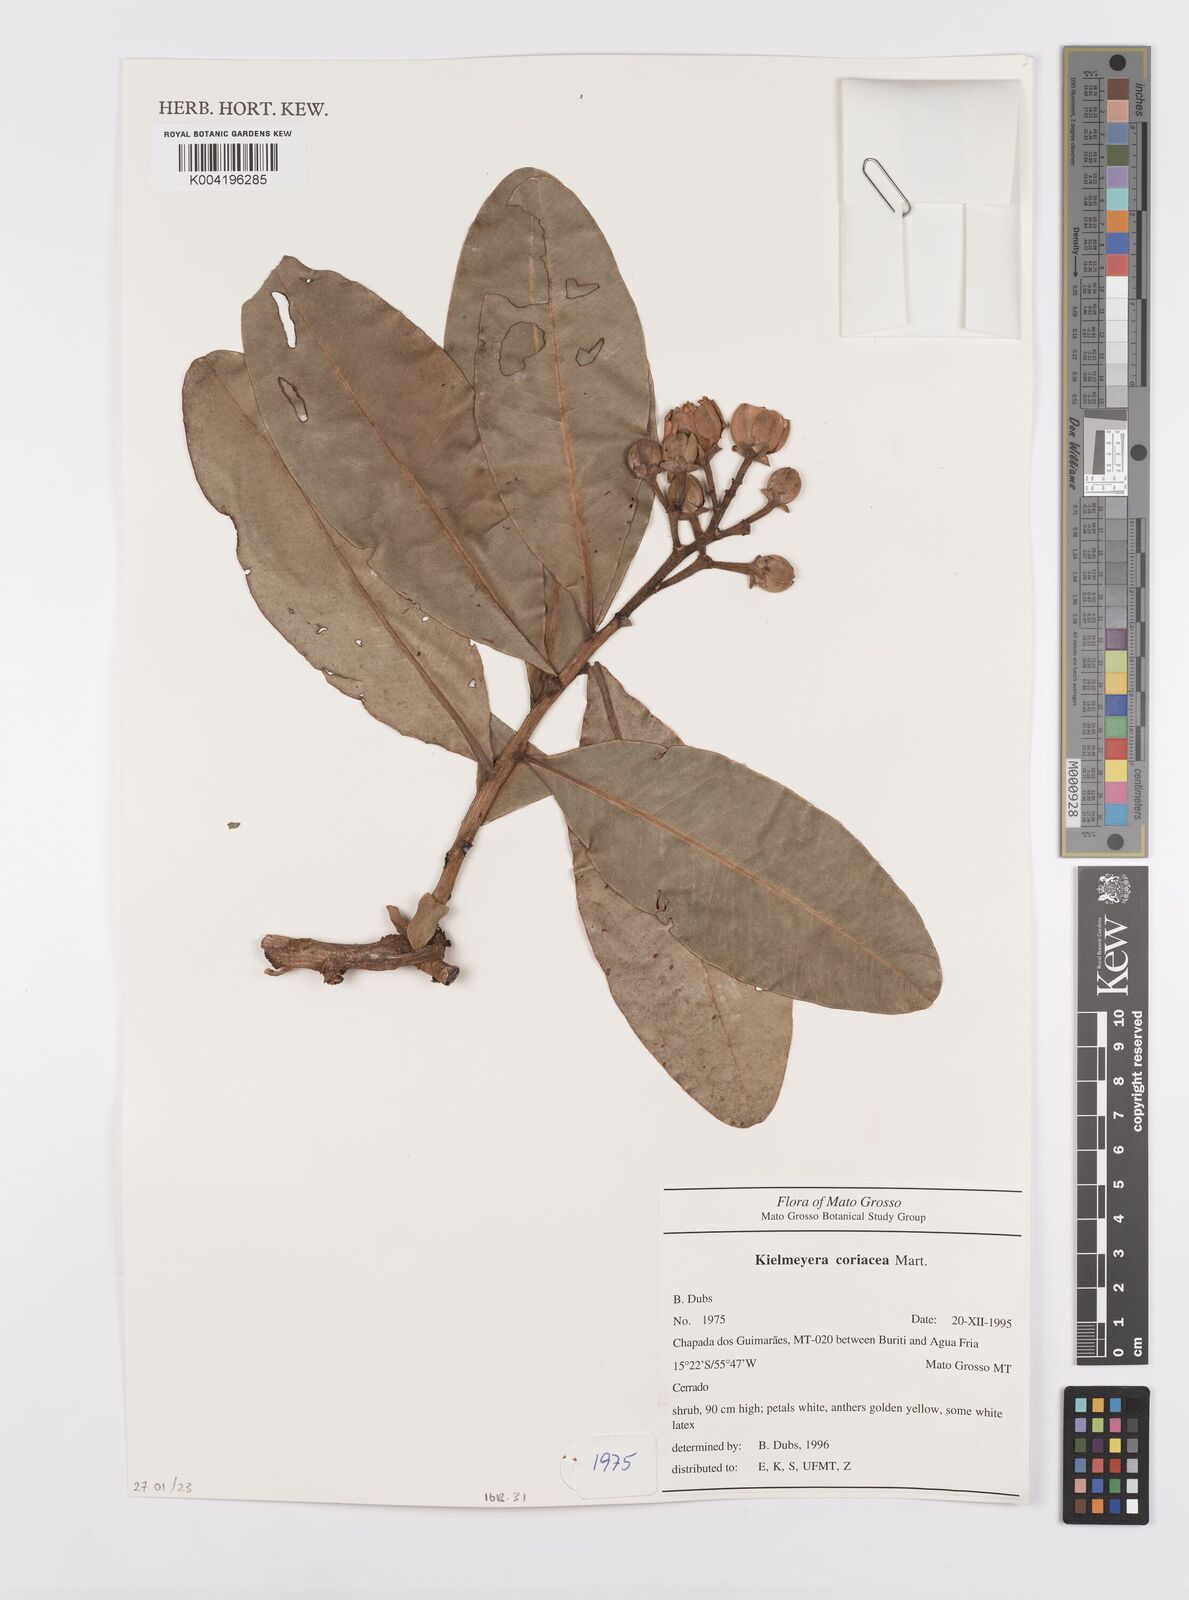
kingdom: Plantae
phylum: Tracheophyta
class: Magnoliopsida
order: Malpighiales
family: Calophyllaceae
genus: Kielmeyera
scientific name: Kielmeyera coriacea
